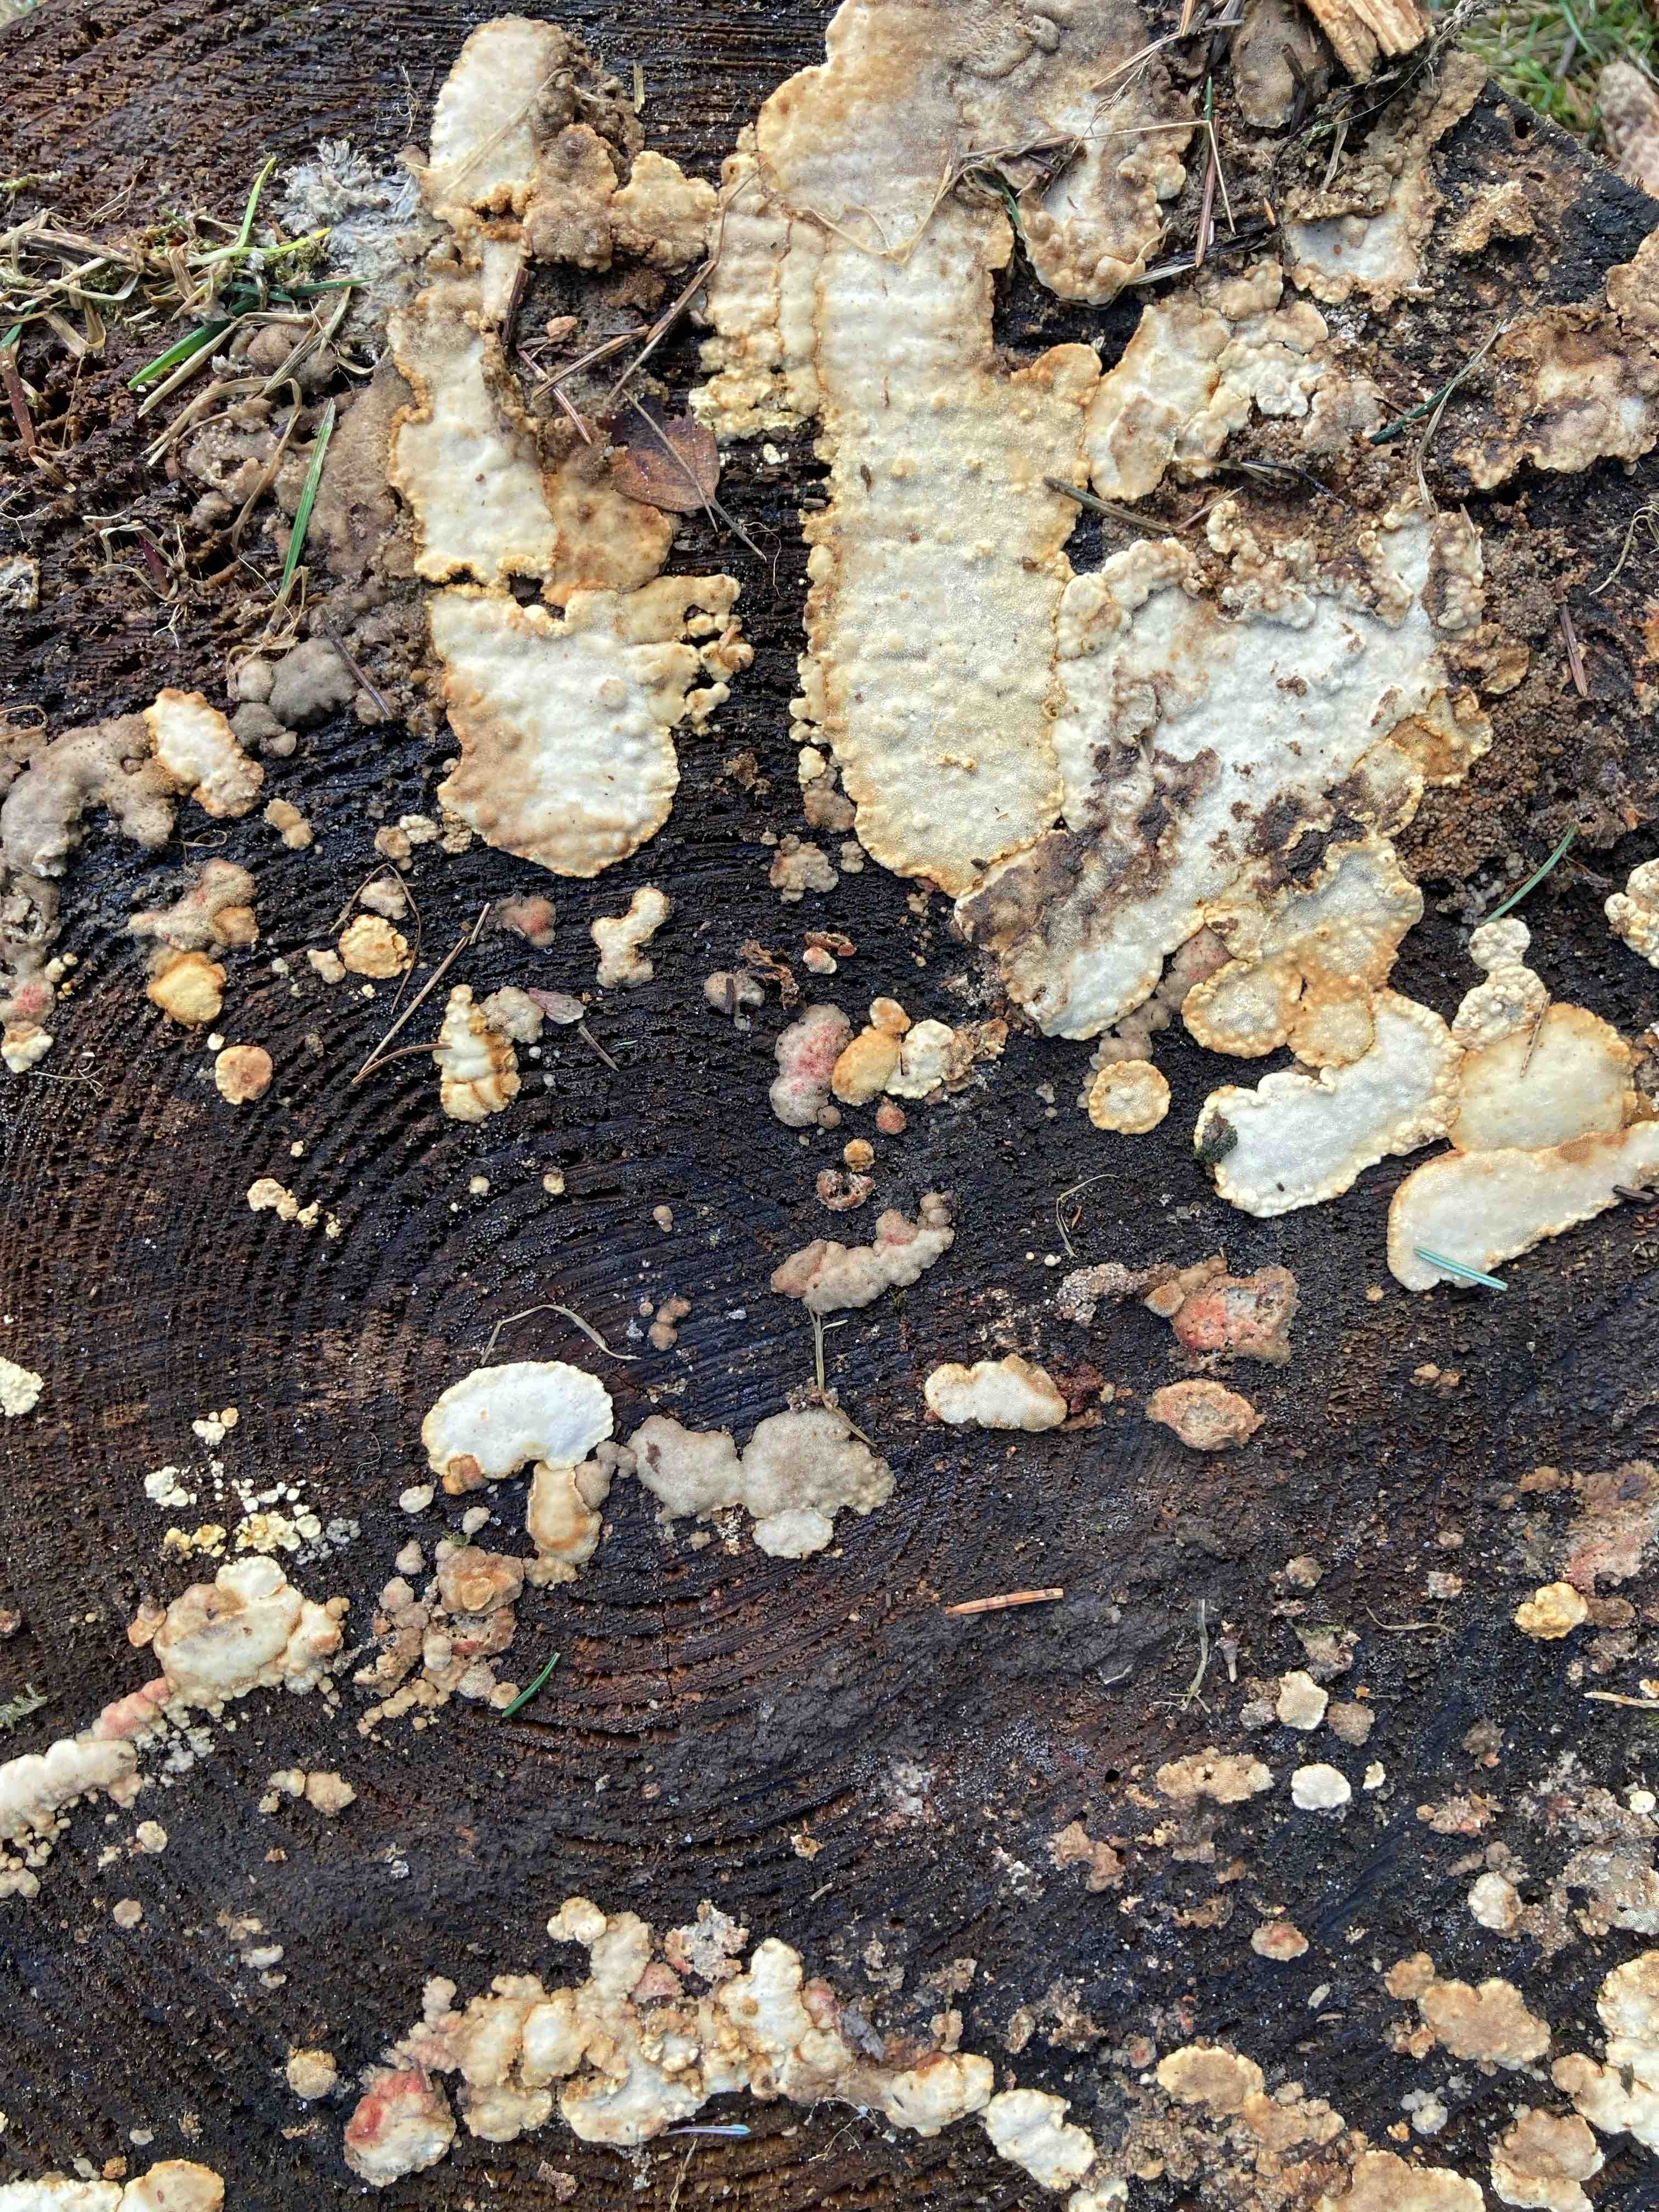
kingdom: Fungi
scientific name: Fungi
